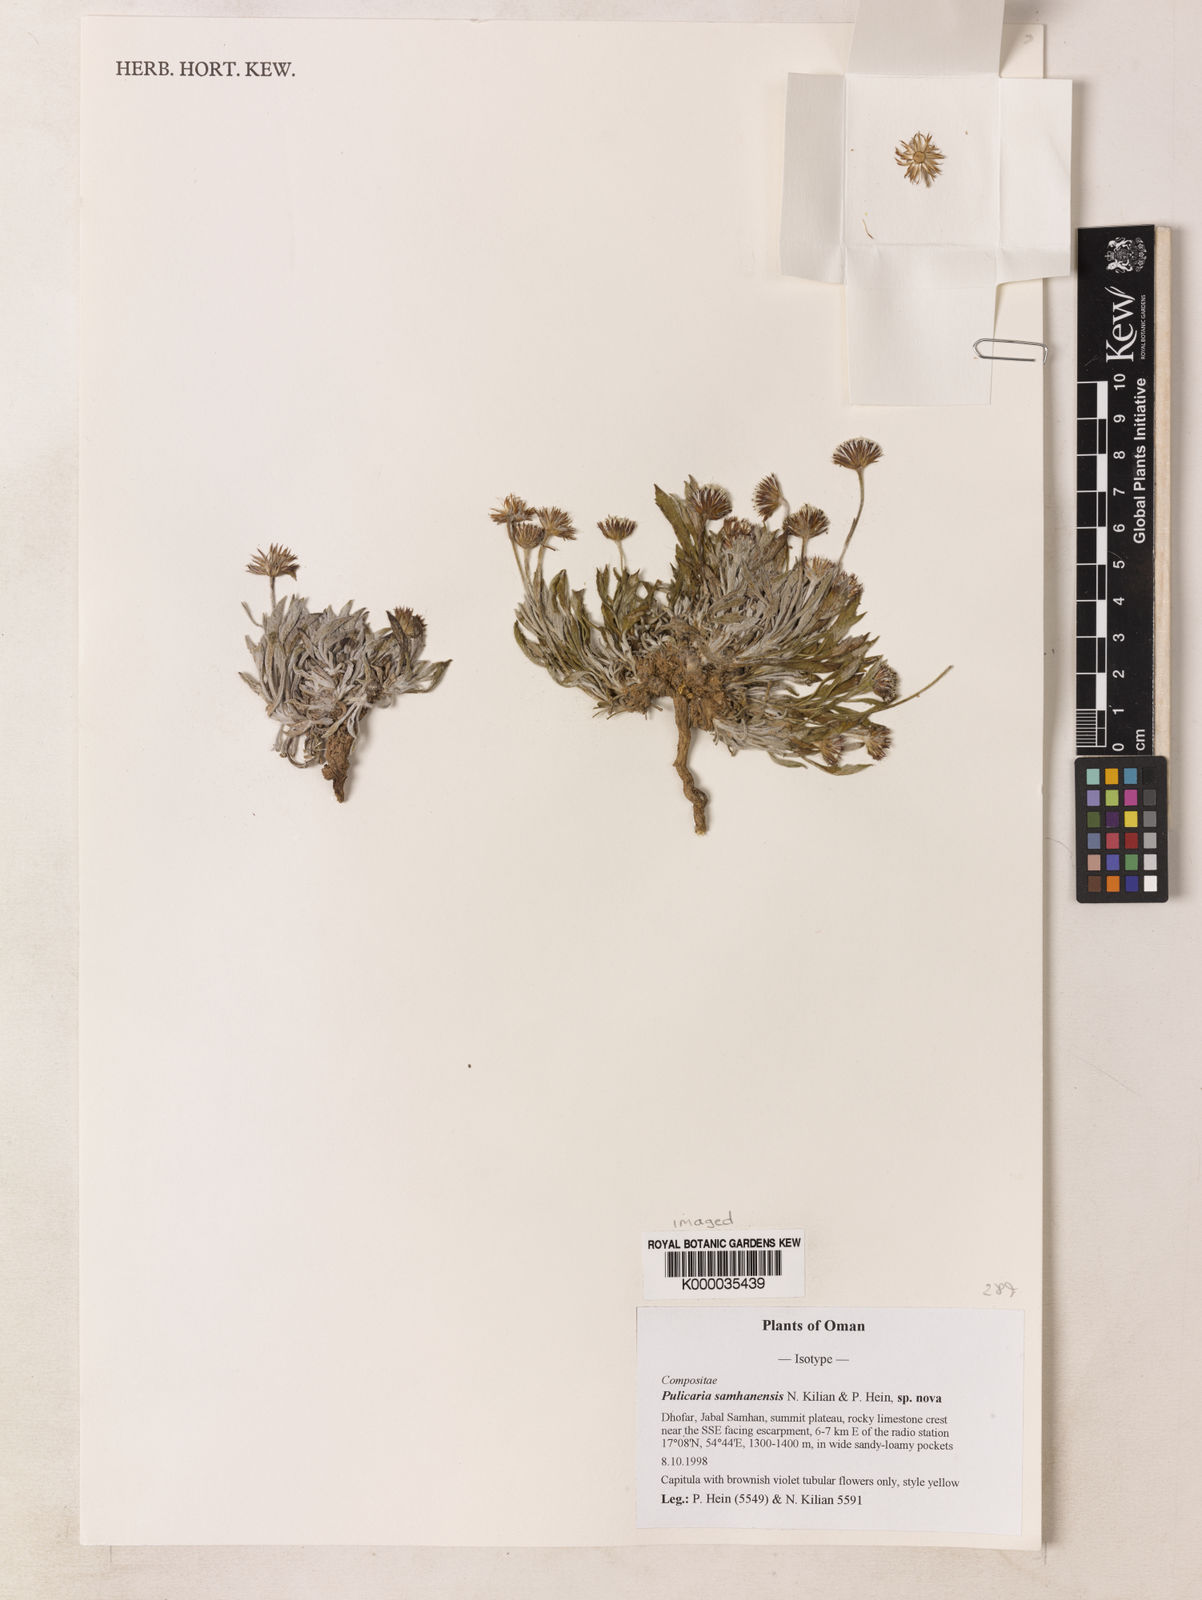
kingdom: Plantae
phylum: Tracheophyta
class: Magnoliopsida
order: Asterales
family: Asteraceae
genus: Pulicaria
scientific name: Pulicaria samhanensis
